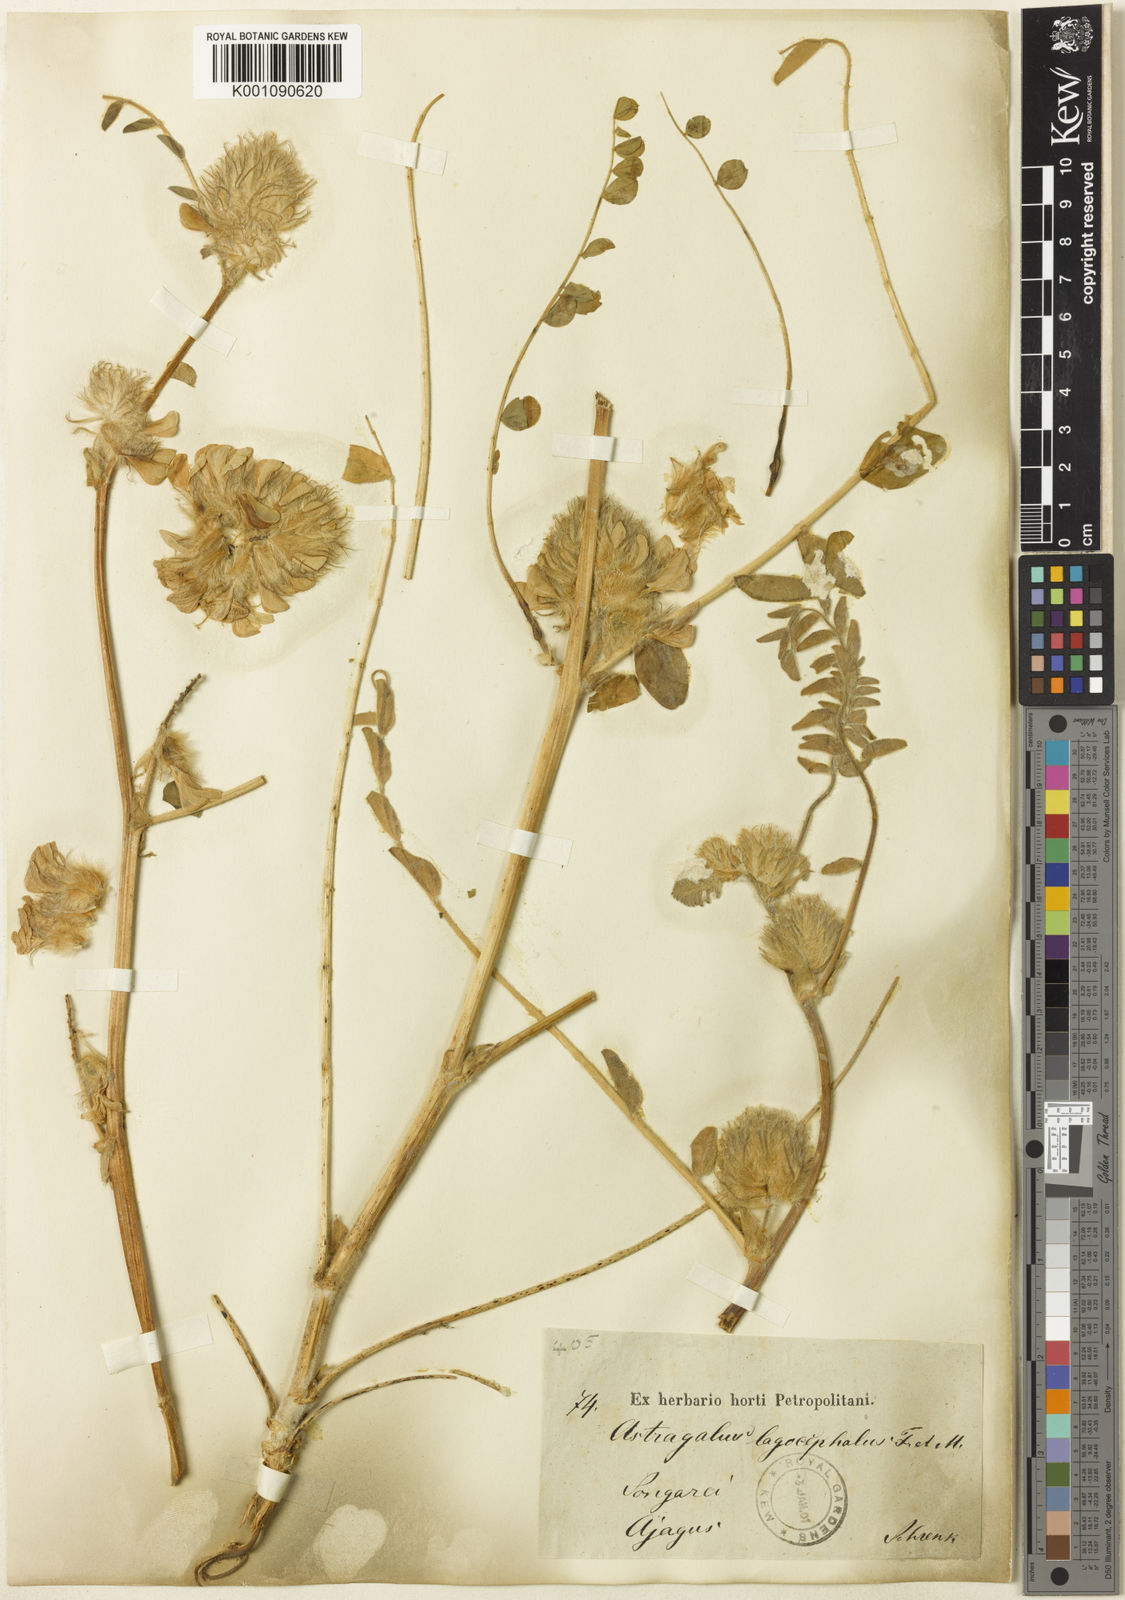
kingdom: Plantae
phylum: Tracheophyta
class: Magnoliopsida
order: Fabales
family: Fabaceae
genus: Astragalus
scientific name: Astragalus
